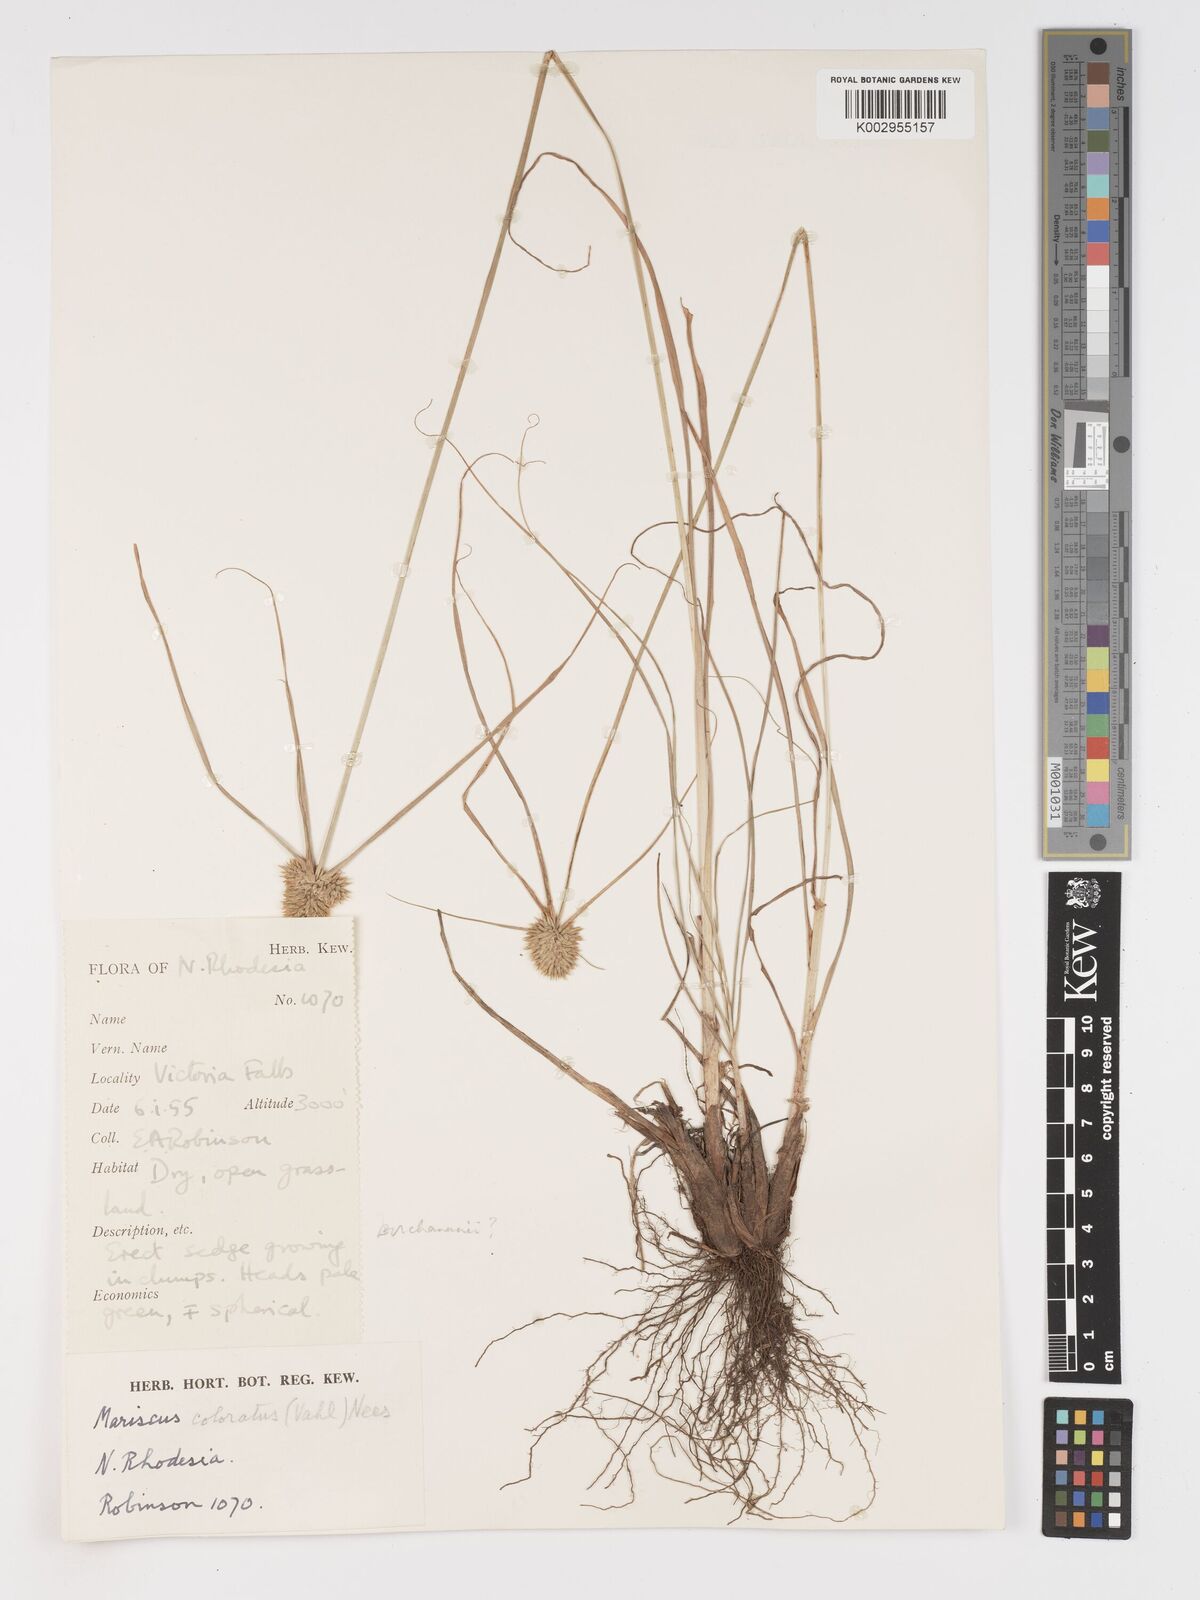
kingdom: Plantae
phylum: Tracheophyta
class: Liliopsida
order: Poales
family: Cyperaceae
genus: Cyperus
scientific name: Cyperus dubius
